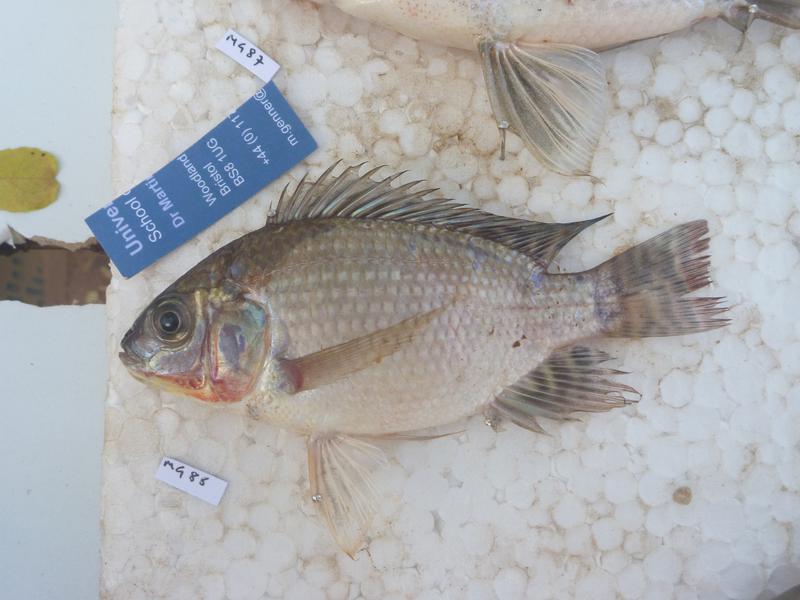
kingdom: Animalia
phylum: Chordata
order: Perciformes
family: Cichlidae
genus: Oreochromis
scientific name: Oreochromis niloticus
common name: Nile tilapia
